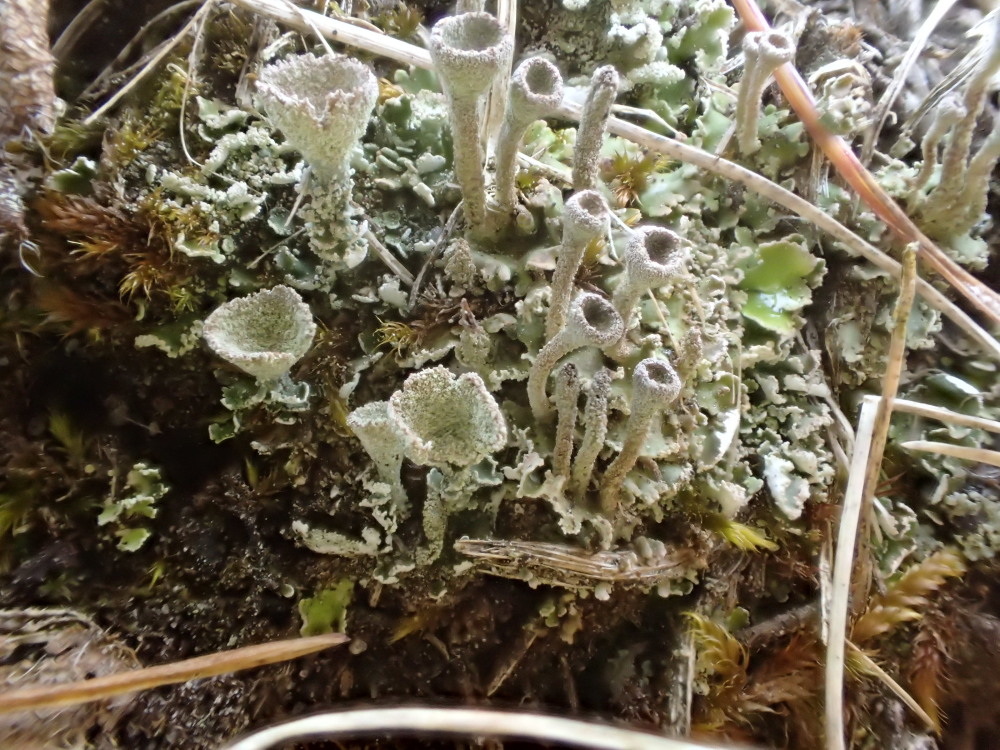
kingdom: Fungi
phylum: Ascomycota
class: Lecanoromycetes
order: Lecanorales
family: Cladoniaceae
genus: Cladonia
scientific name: Cladonia humilis
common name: lav bægerlav
